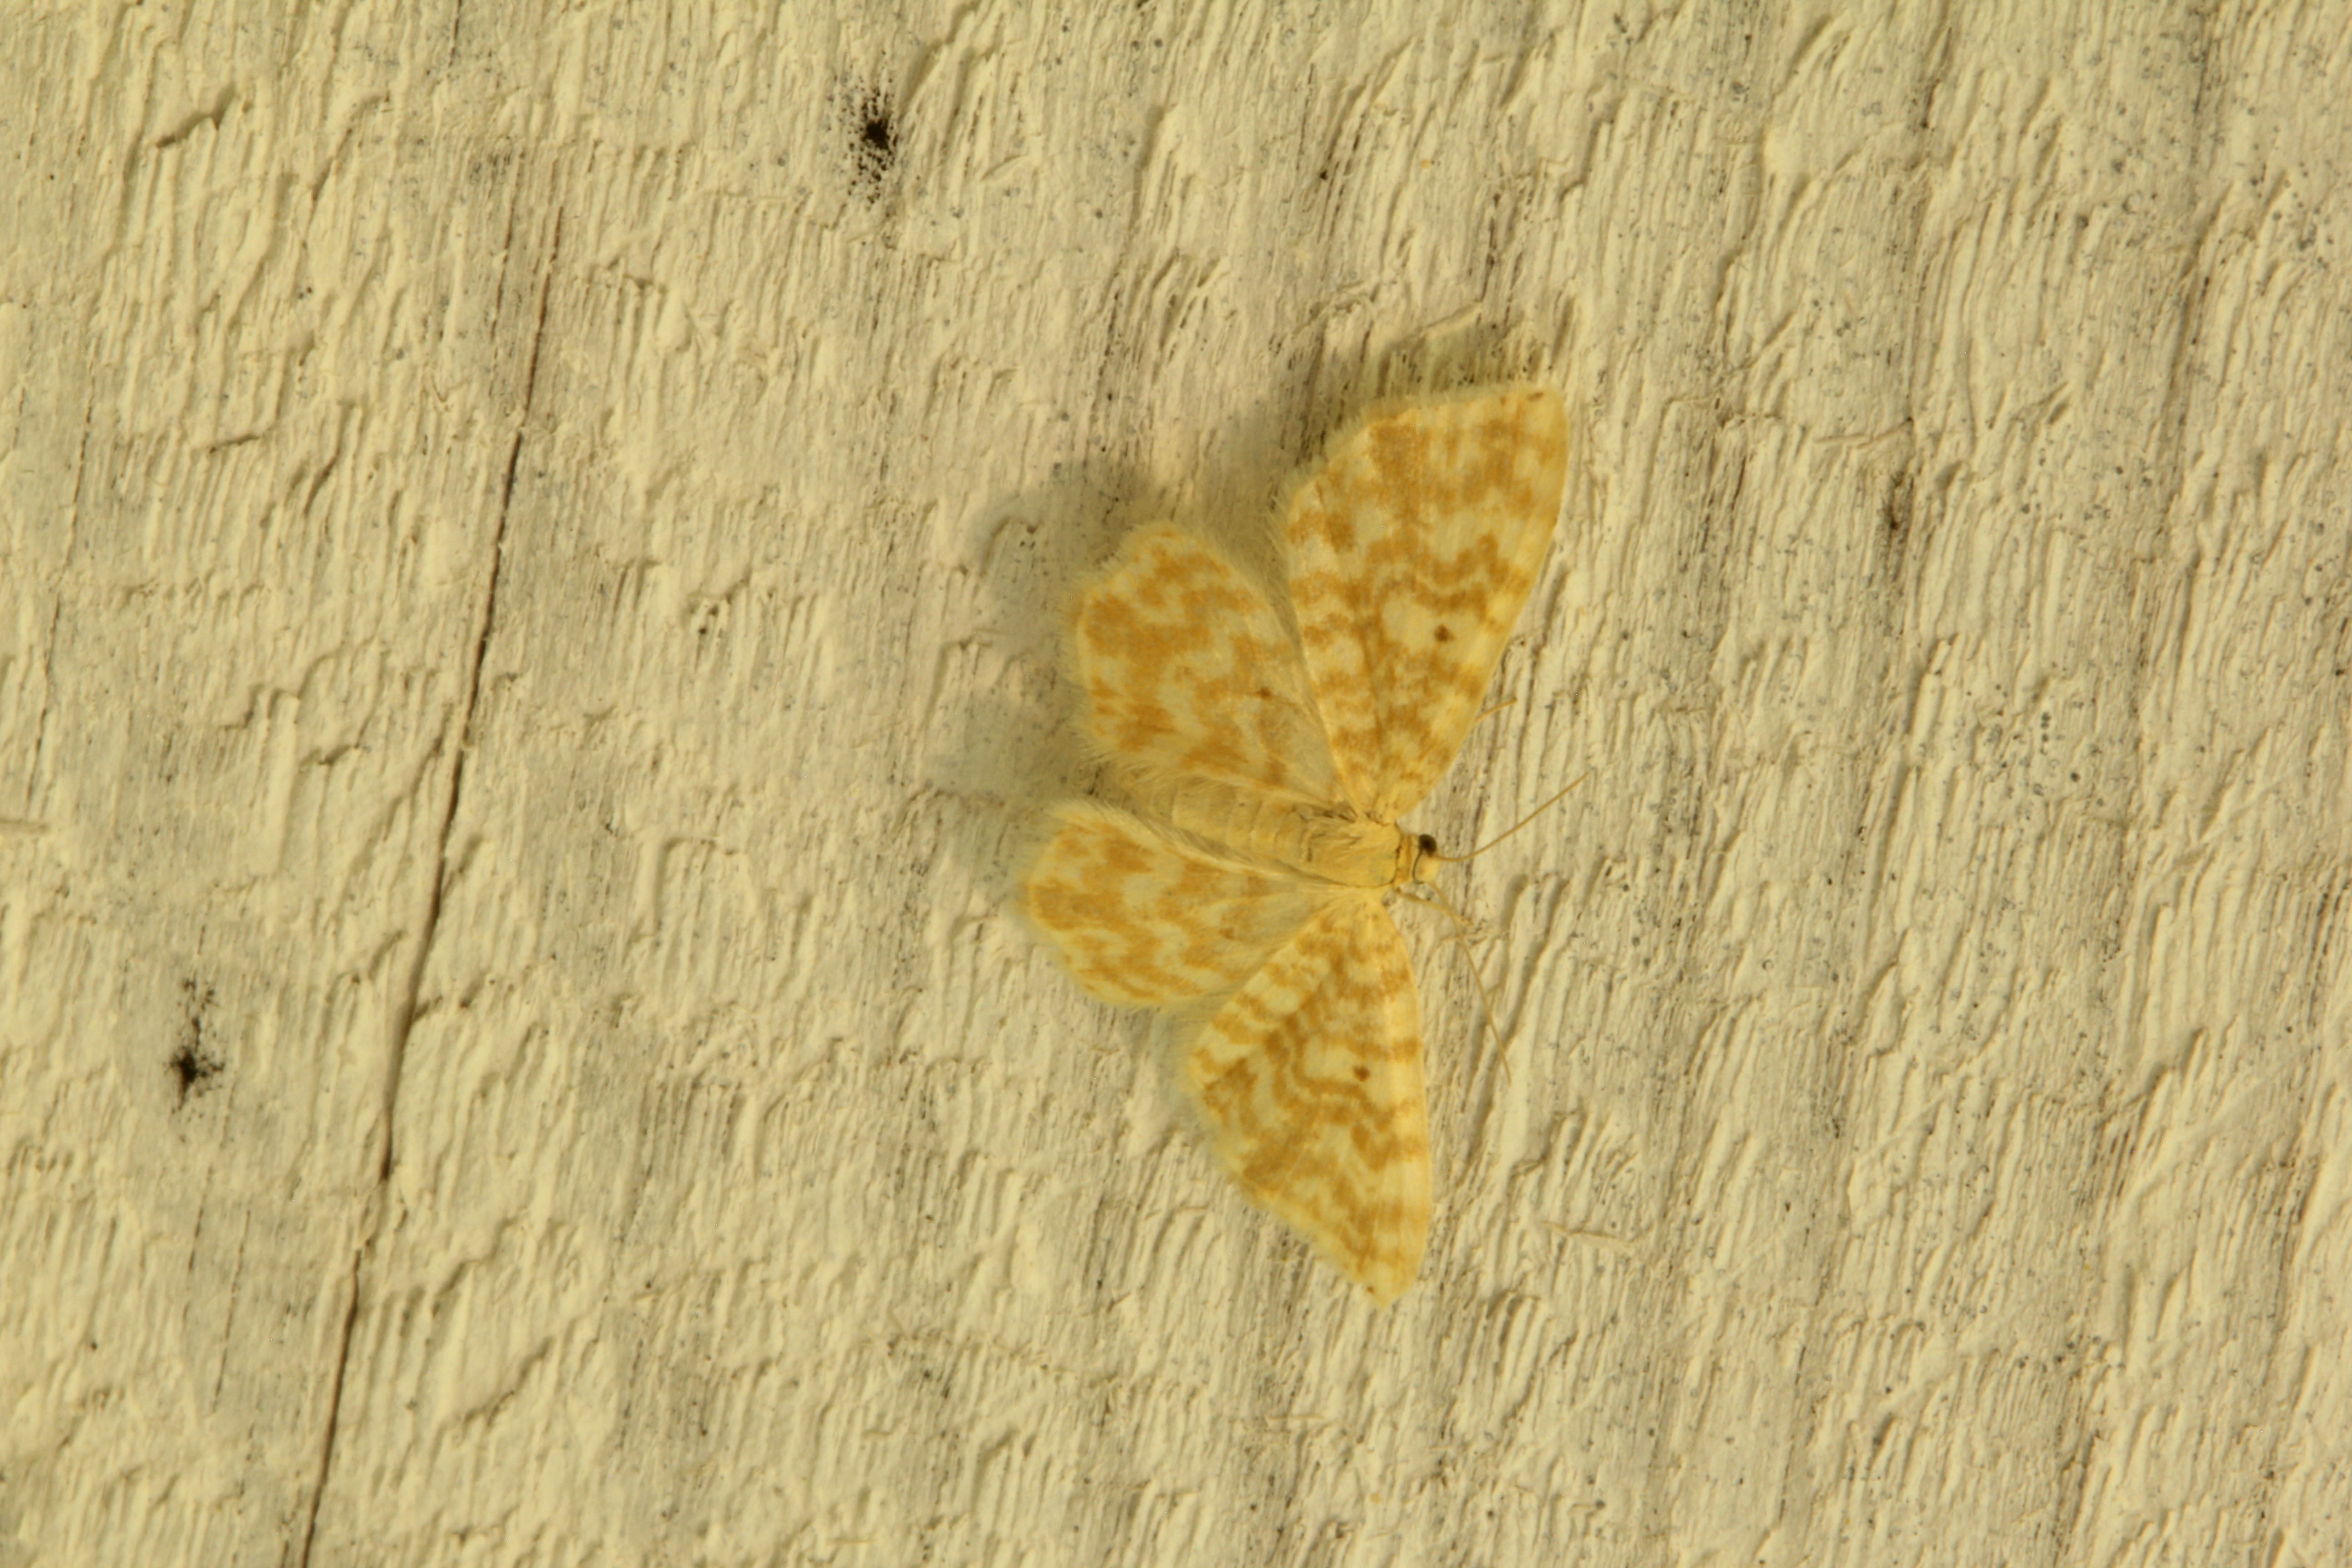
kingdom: Animalia
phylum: Arthropoda
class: Insecta
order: Lepidoptera
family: Geometridae
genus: Hydrelia
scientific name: Hydrelia flammeolaria
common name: Small yellow wave
